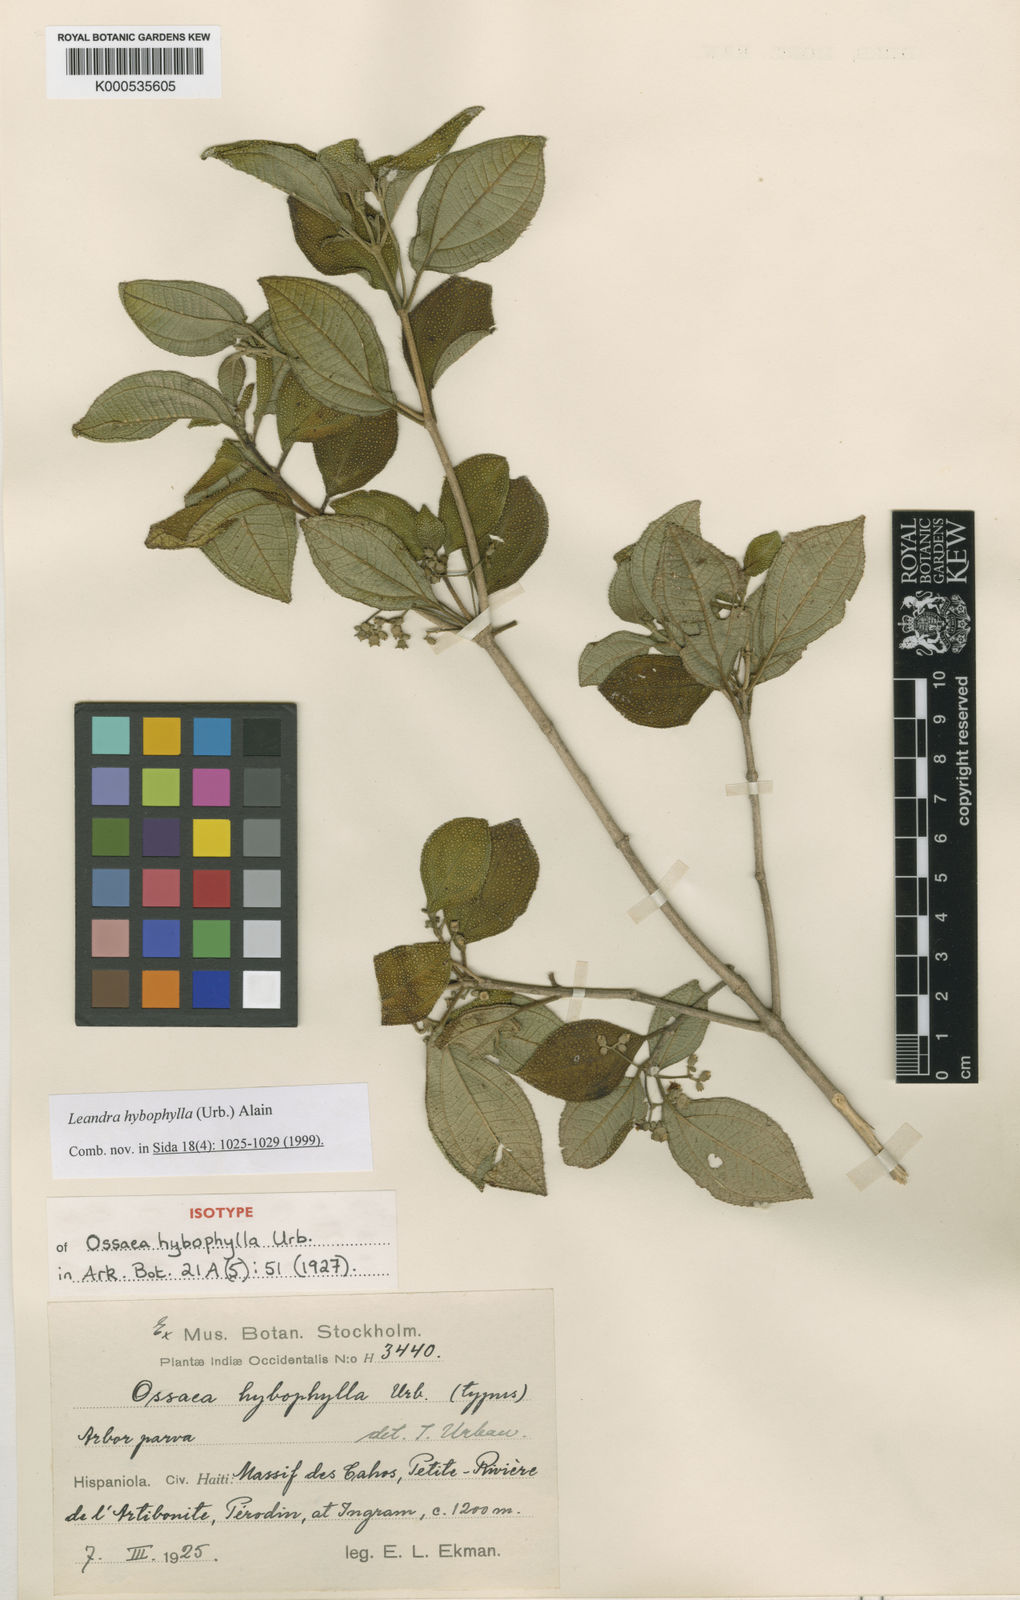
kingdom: Plantae
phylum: Tracheophyta
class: Magnoliopsida
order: Myrtales
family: Melastomataceae
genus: Miconia
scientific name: Miconia hybophylla
